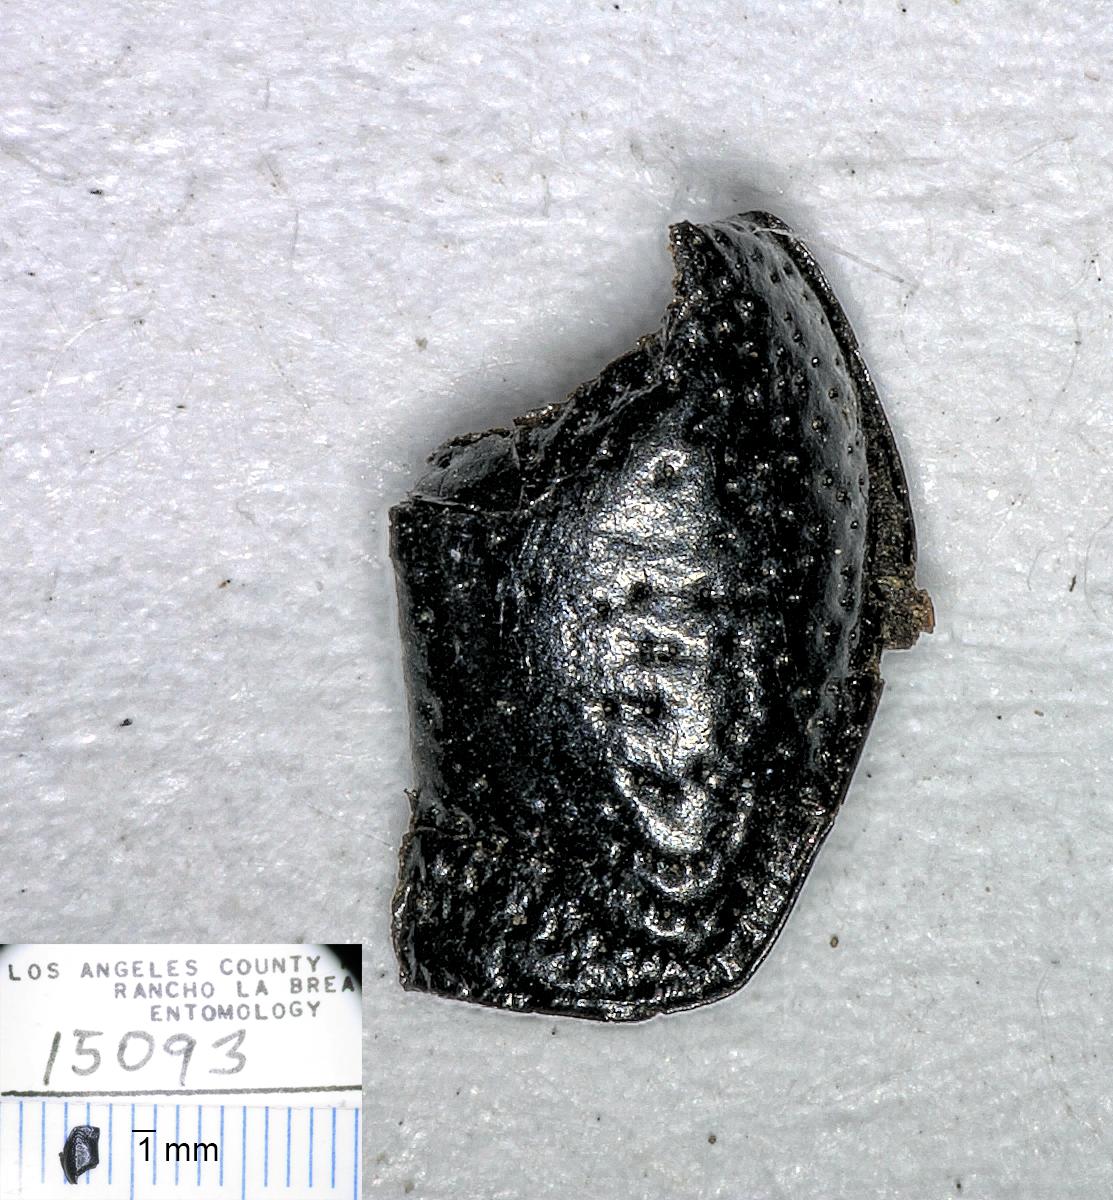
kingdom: Animalia
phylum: Arthropoda
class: Insecta
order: Coleoptera
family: Carabidae
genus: Dicheirus
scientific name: Dicheirus dilatatus
